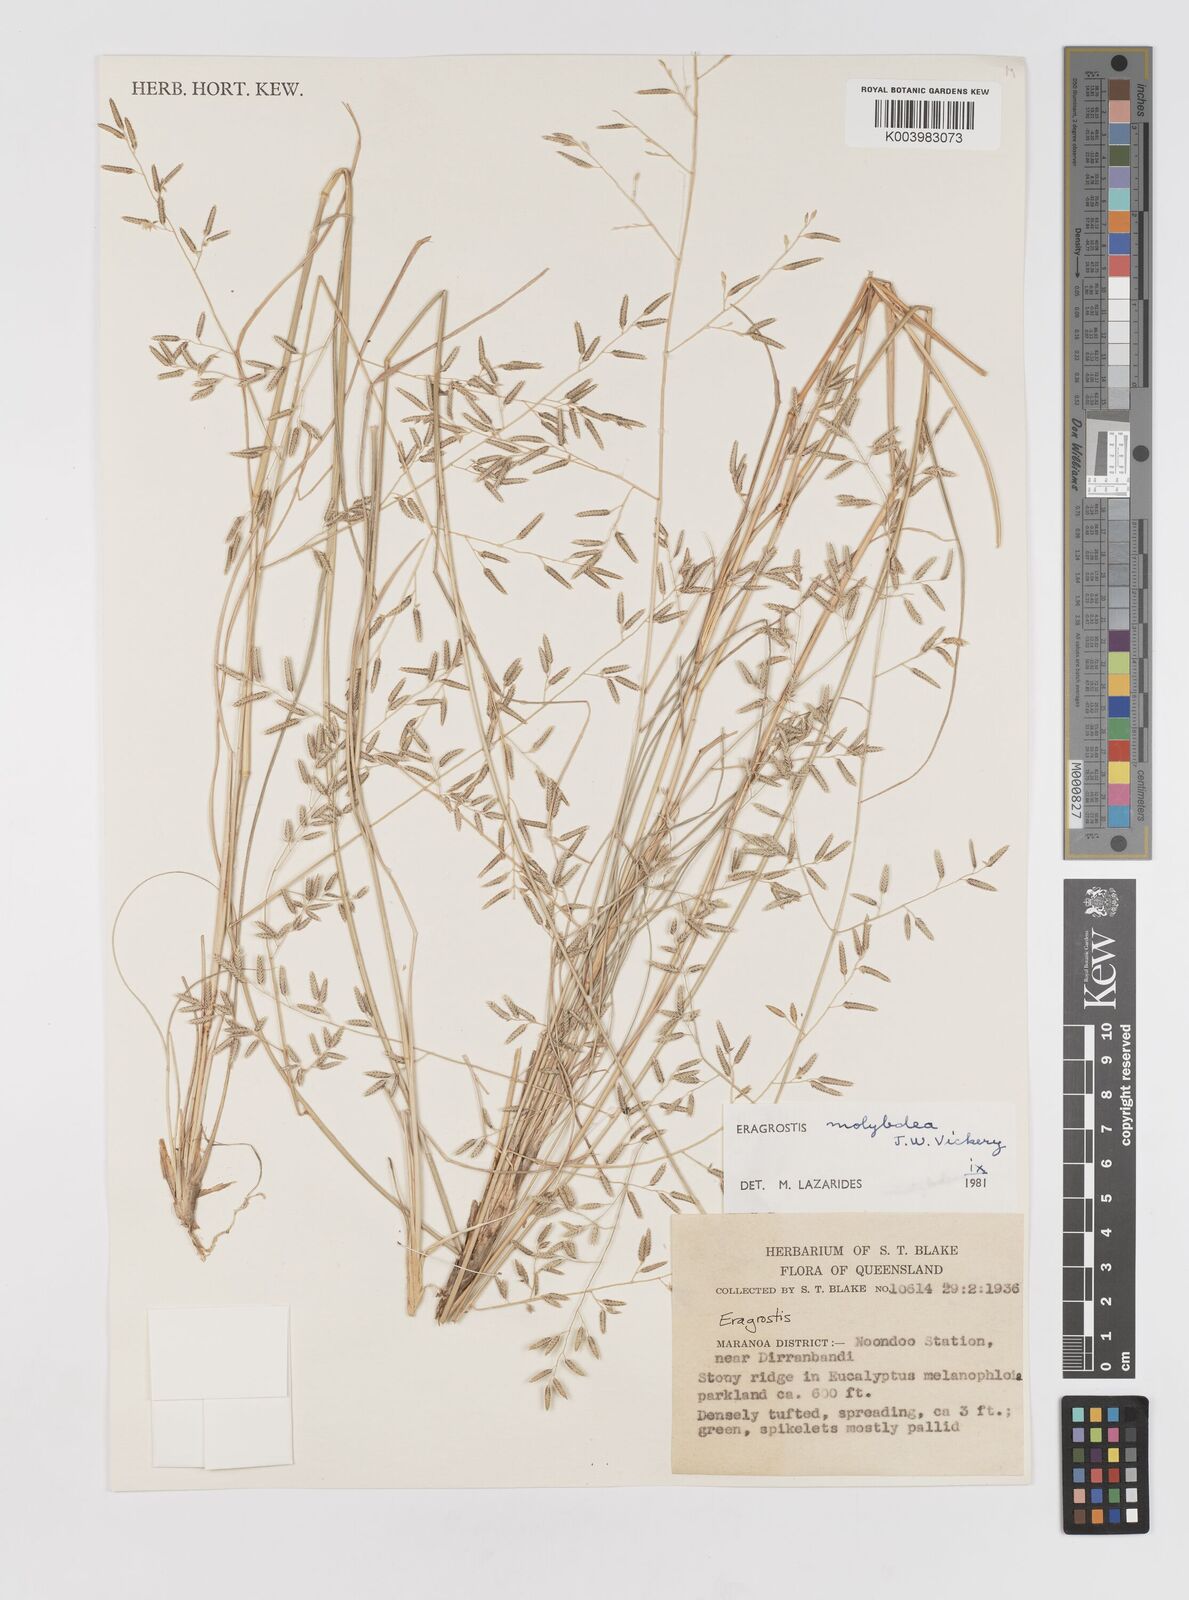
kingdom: Plantae
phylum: Tracheophyta
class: Liliopsida
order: Poales
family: Poaceae
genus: Eragrostis
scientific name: Eragrostis leptostachya
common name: Australian lovegrass
